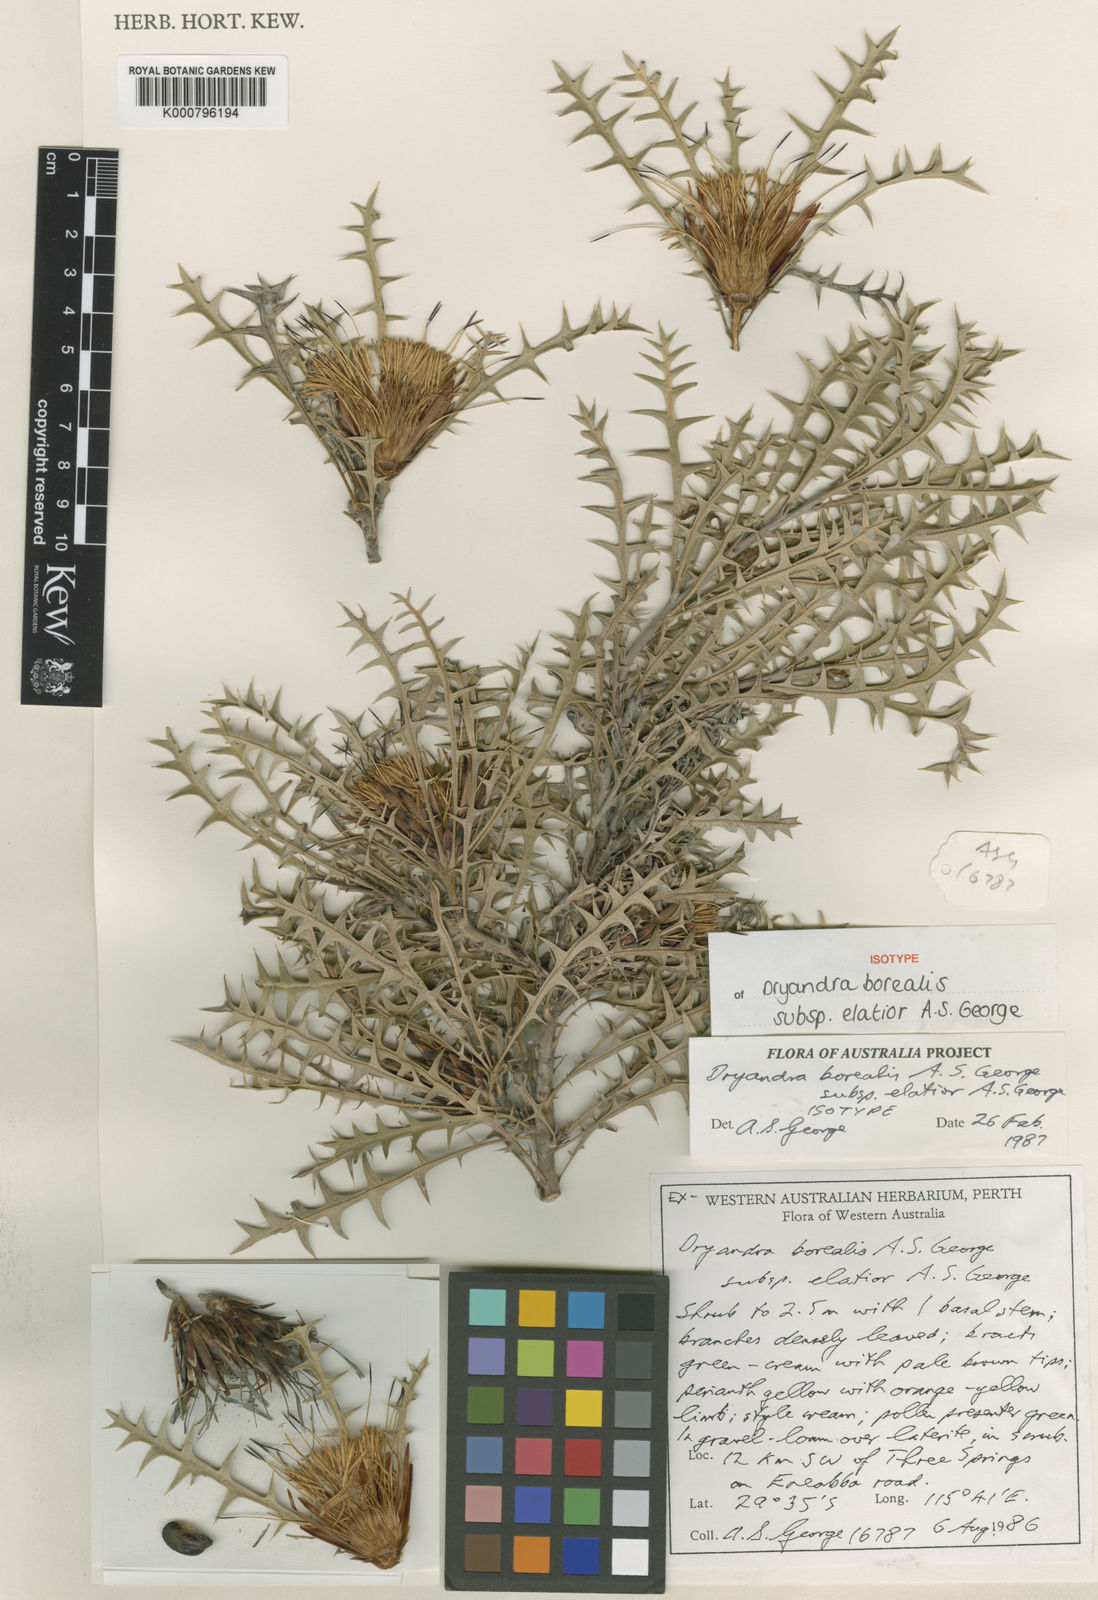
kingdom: Plantae
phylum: Tracheophyta
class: Magnoliopsida
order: Proteales
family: Proteaceae
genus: Banksia
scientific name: Banksia borealis
